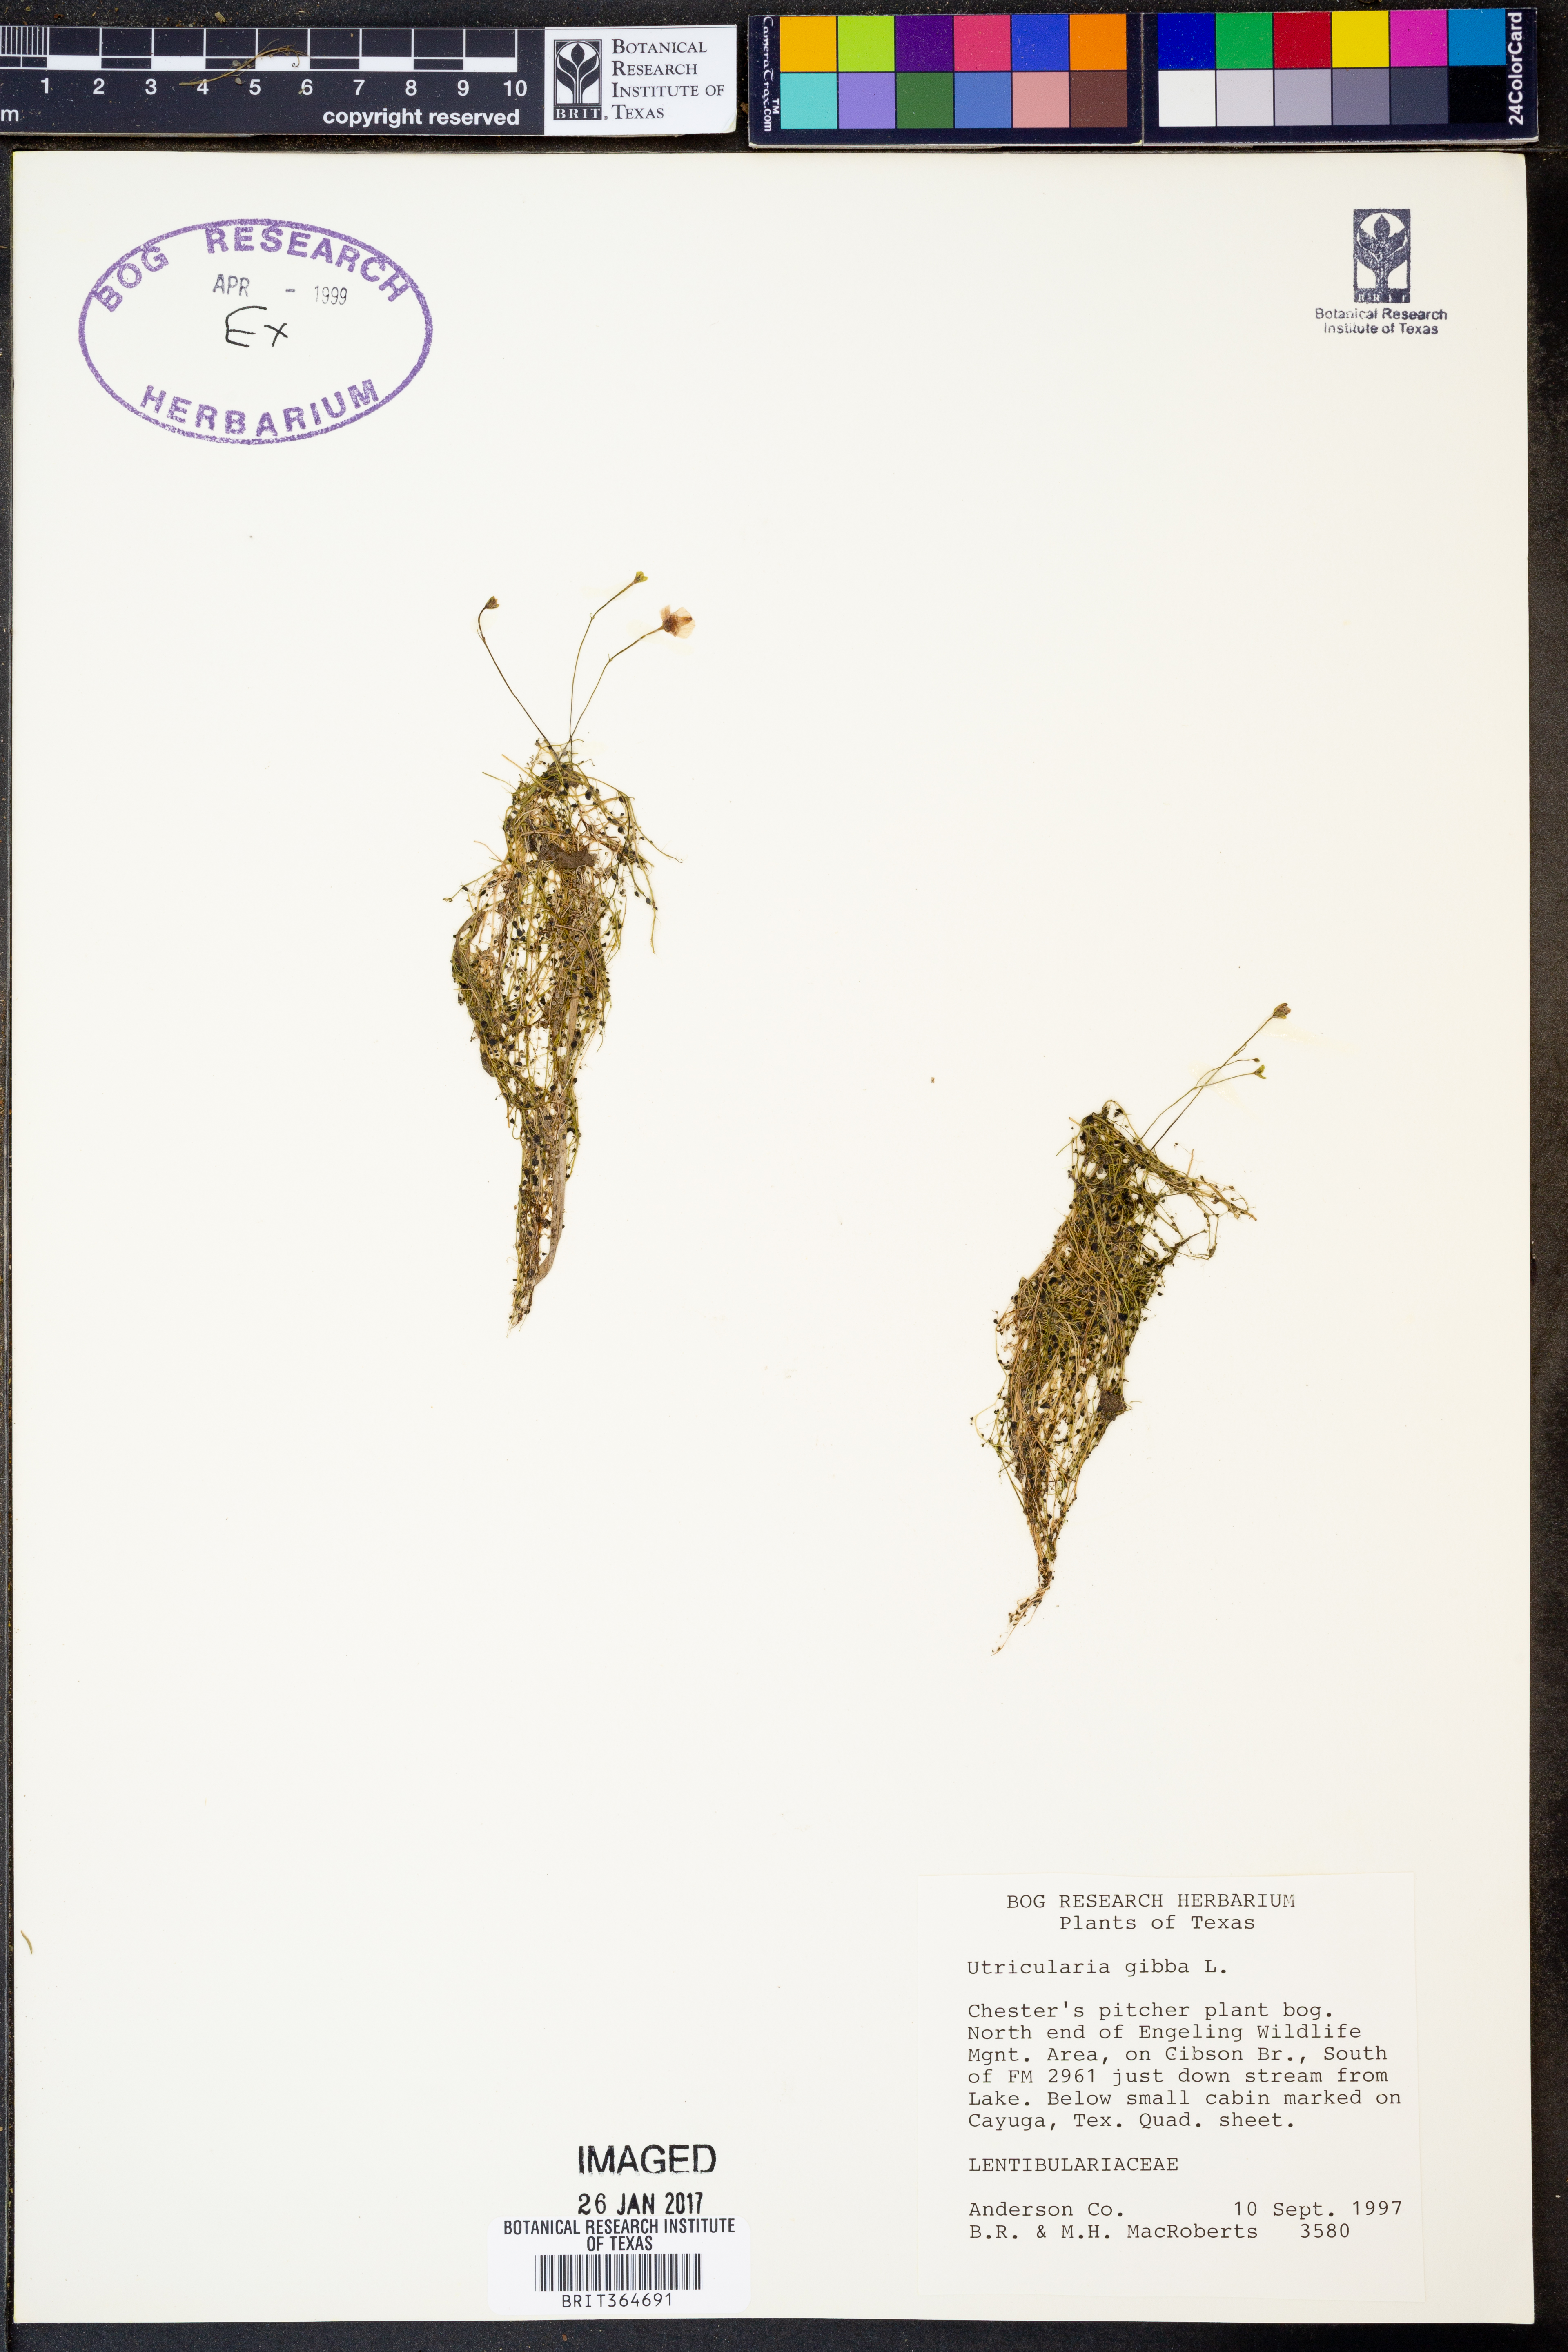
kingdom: Plantae
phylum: Tracheophyta
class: Magnoliopsida
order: Lamiales
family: Lentibulariaceae
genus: Utricularia
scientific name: Utricularia gibba
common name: Humped bladderwort
